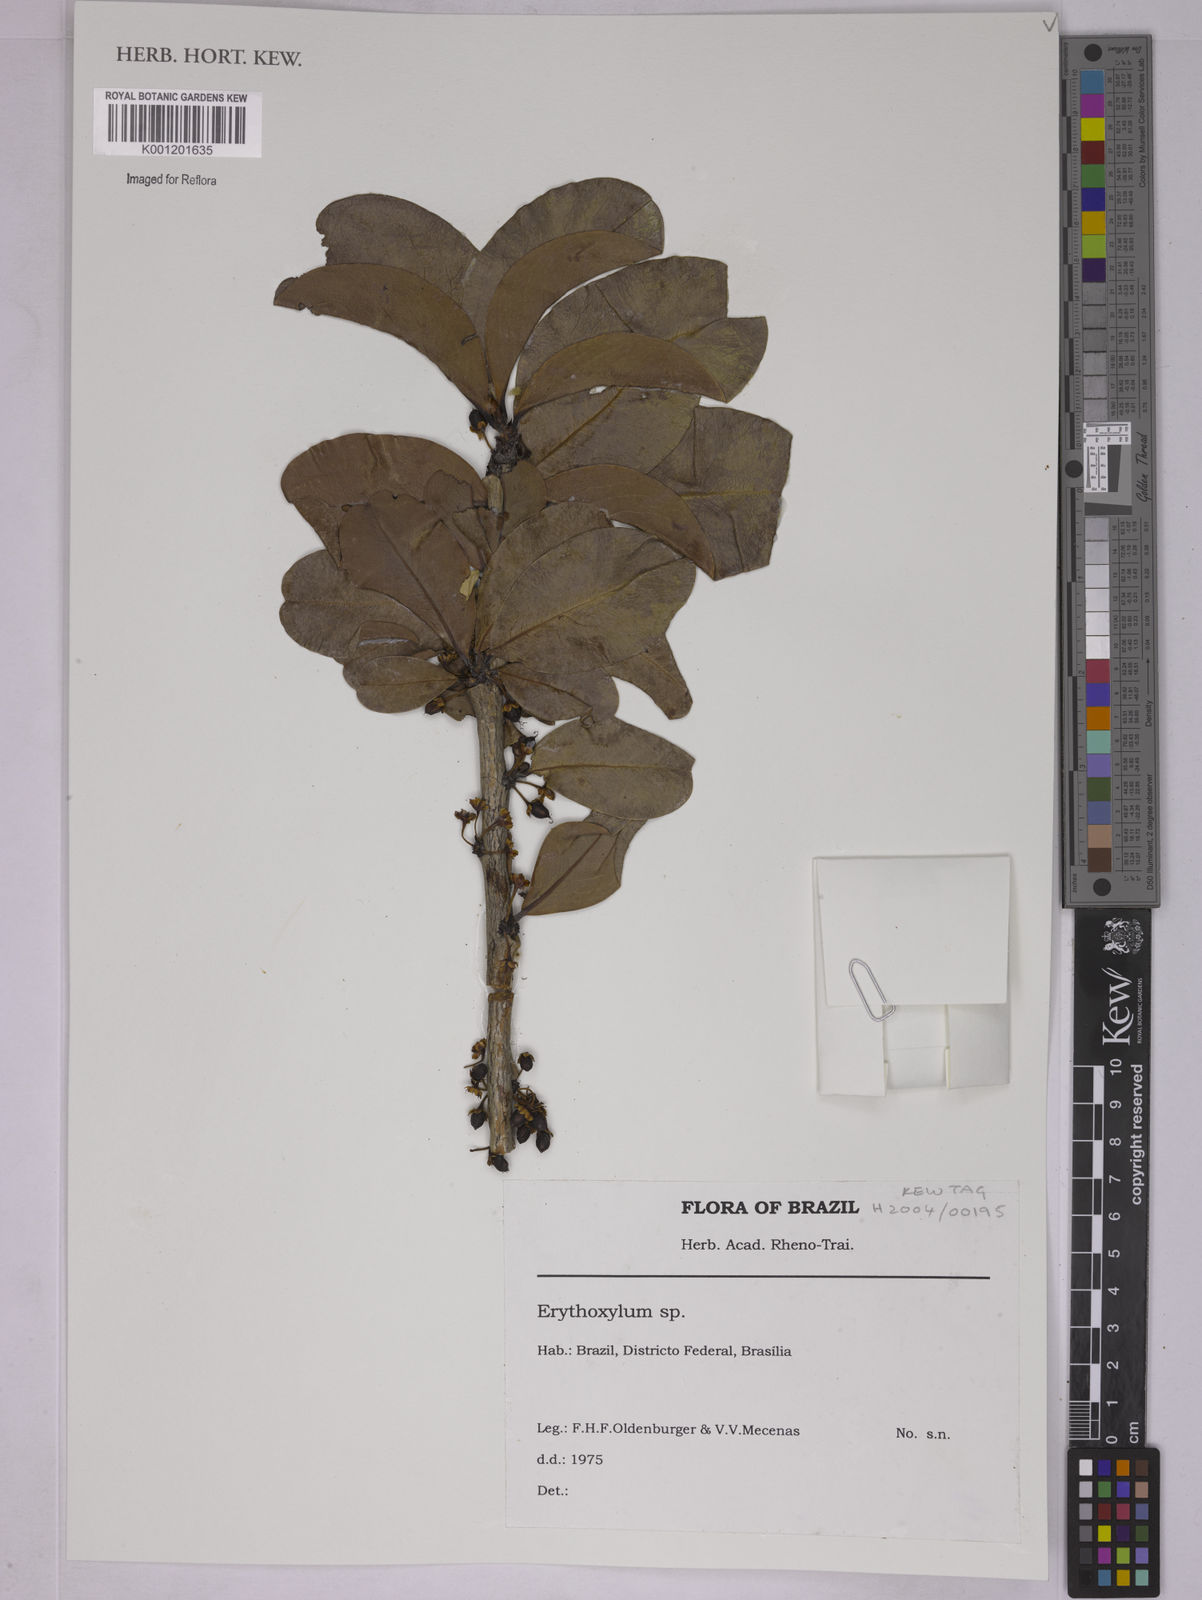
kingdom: Plantae
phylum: Tracheophyta
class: Magnoliopsida
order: Malpighiales
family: Erythroxylaceae
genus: Erythroxylum
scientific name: Erythroxylum
